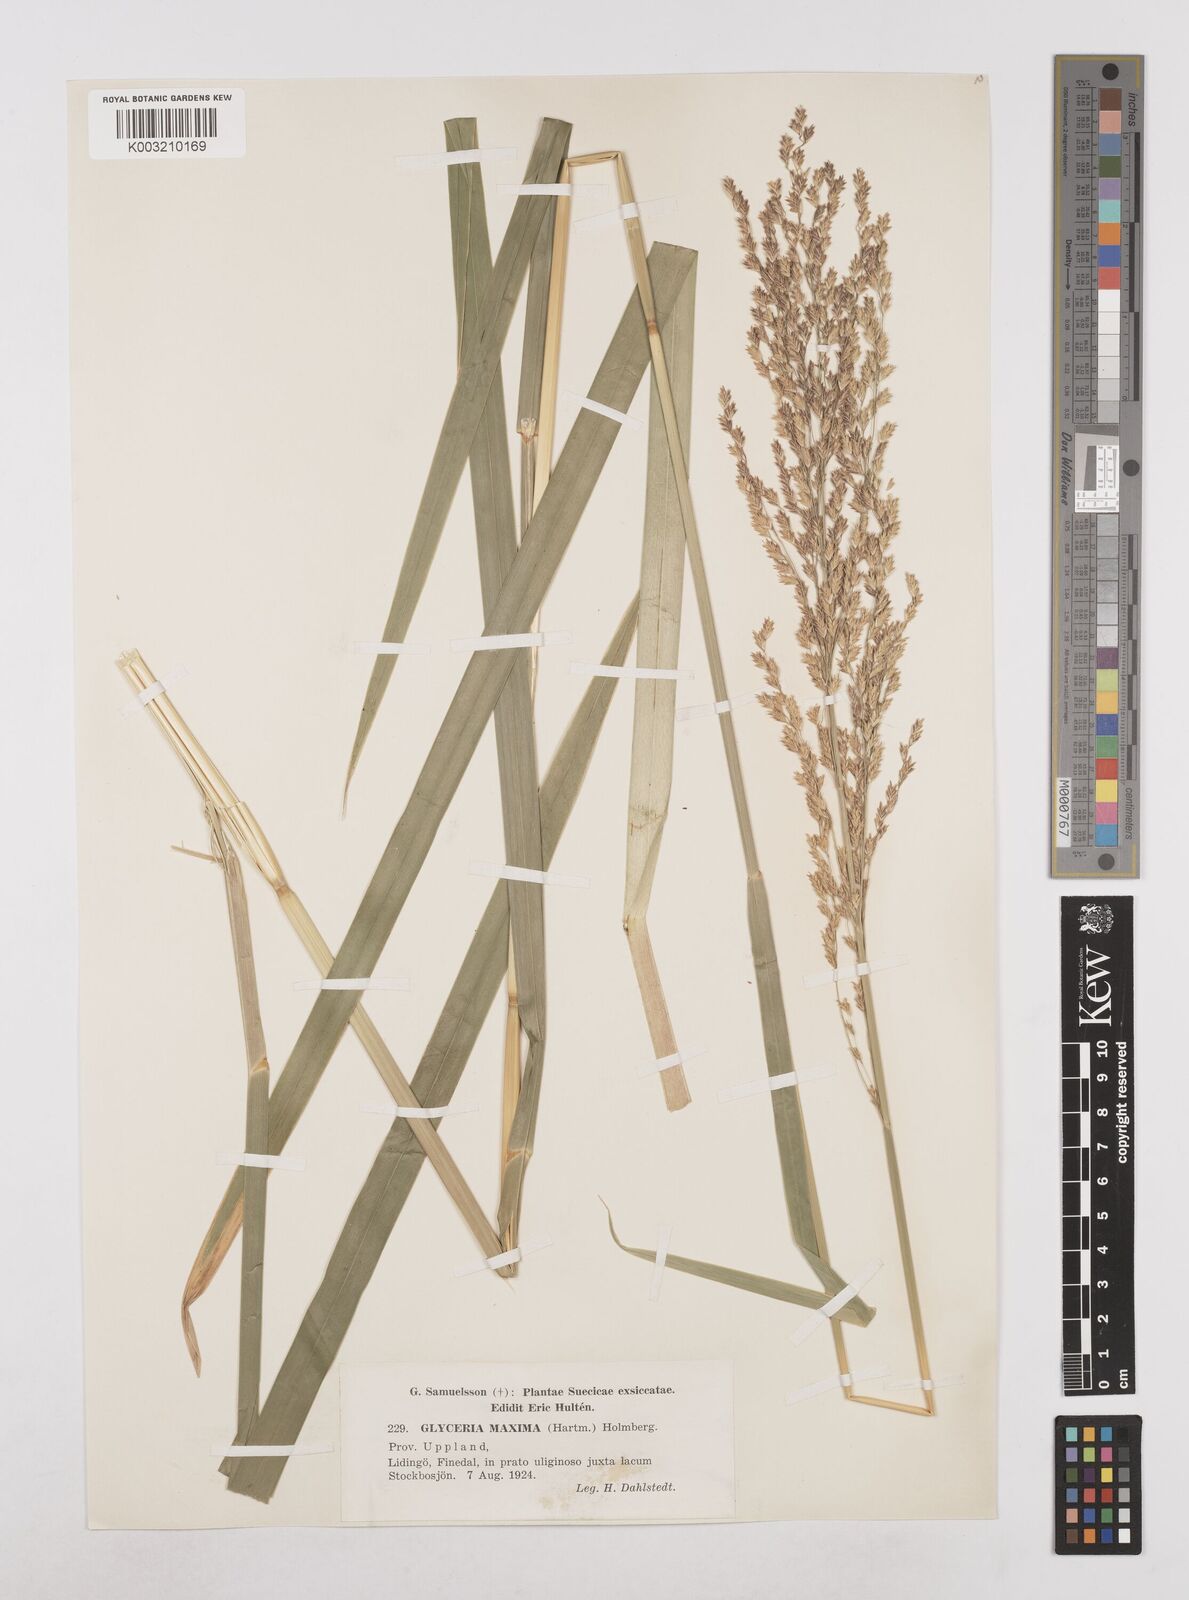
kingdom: Plantae
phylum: Tracheophyta
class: Liliopsida
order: Poales
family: Poaceae
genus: Glyceria
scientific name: Glyceria maxima
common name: Reed mannagrass
